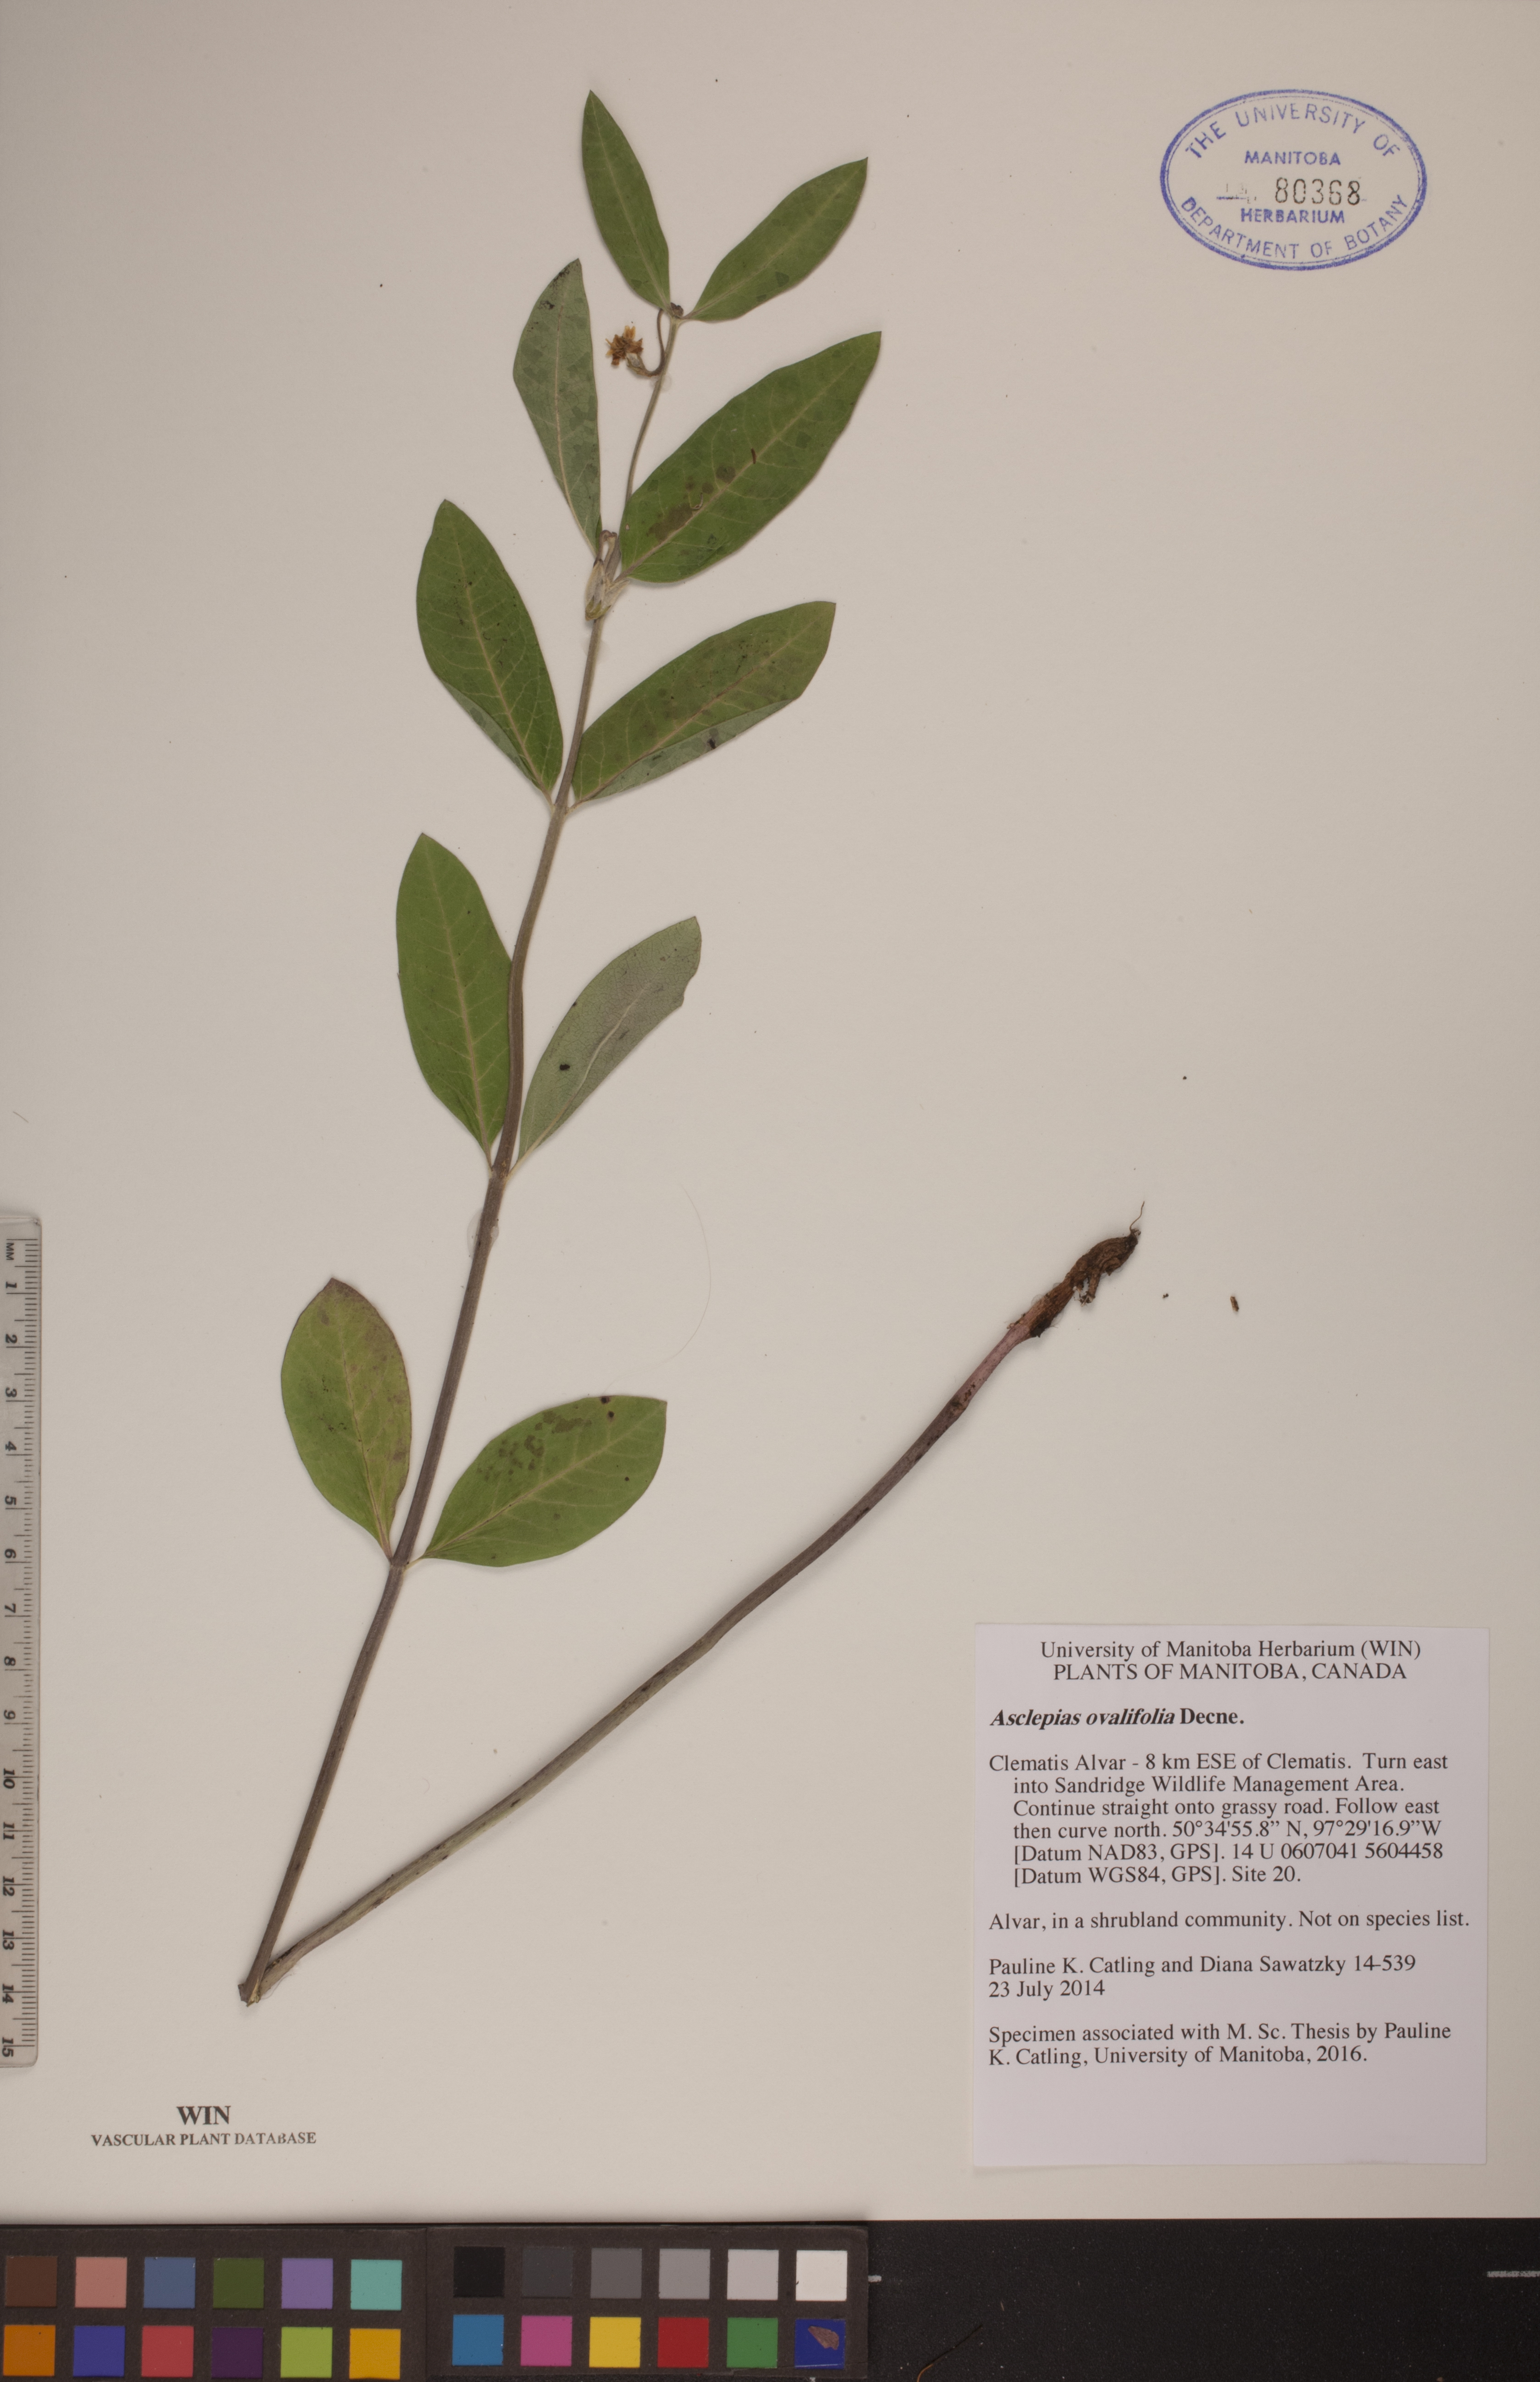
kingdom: Plantae
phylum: Tracheophyta
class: Magnoliopsida
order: Gentianales
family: Apocynaceae
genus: Asclepias
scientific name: Asclepias ovalifolia
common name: Dwarf milkweed
